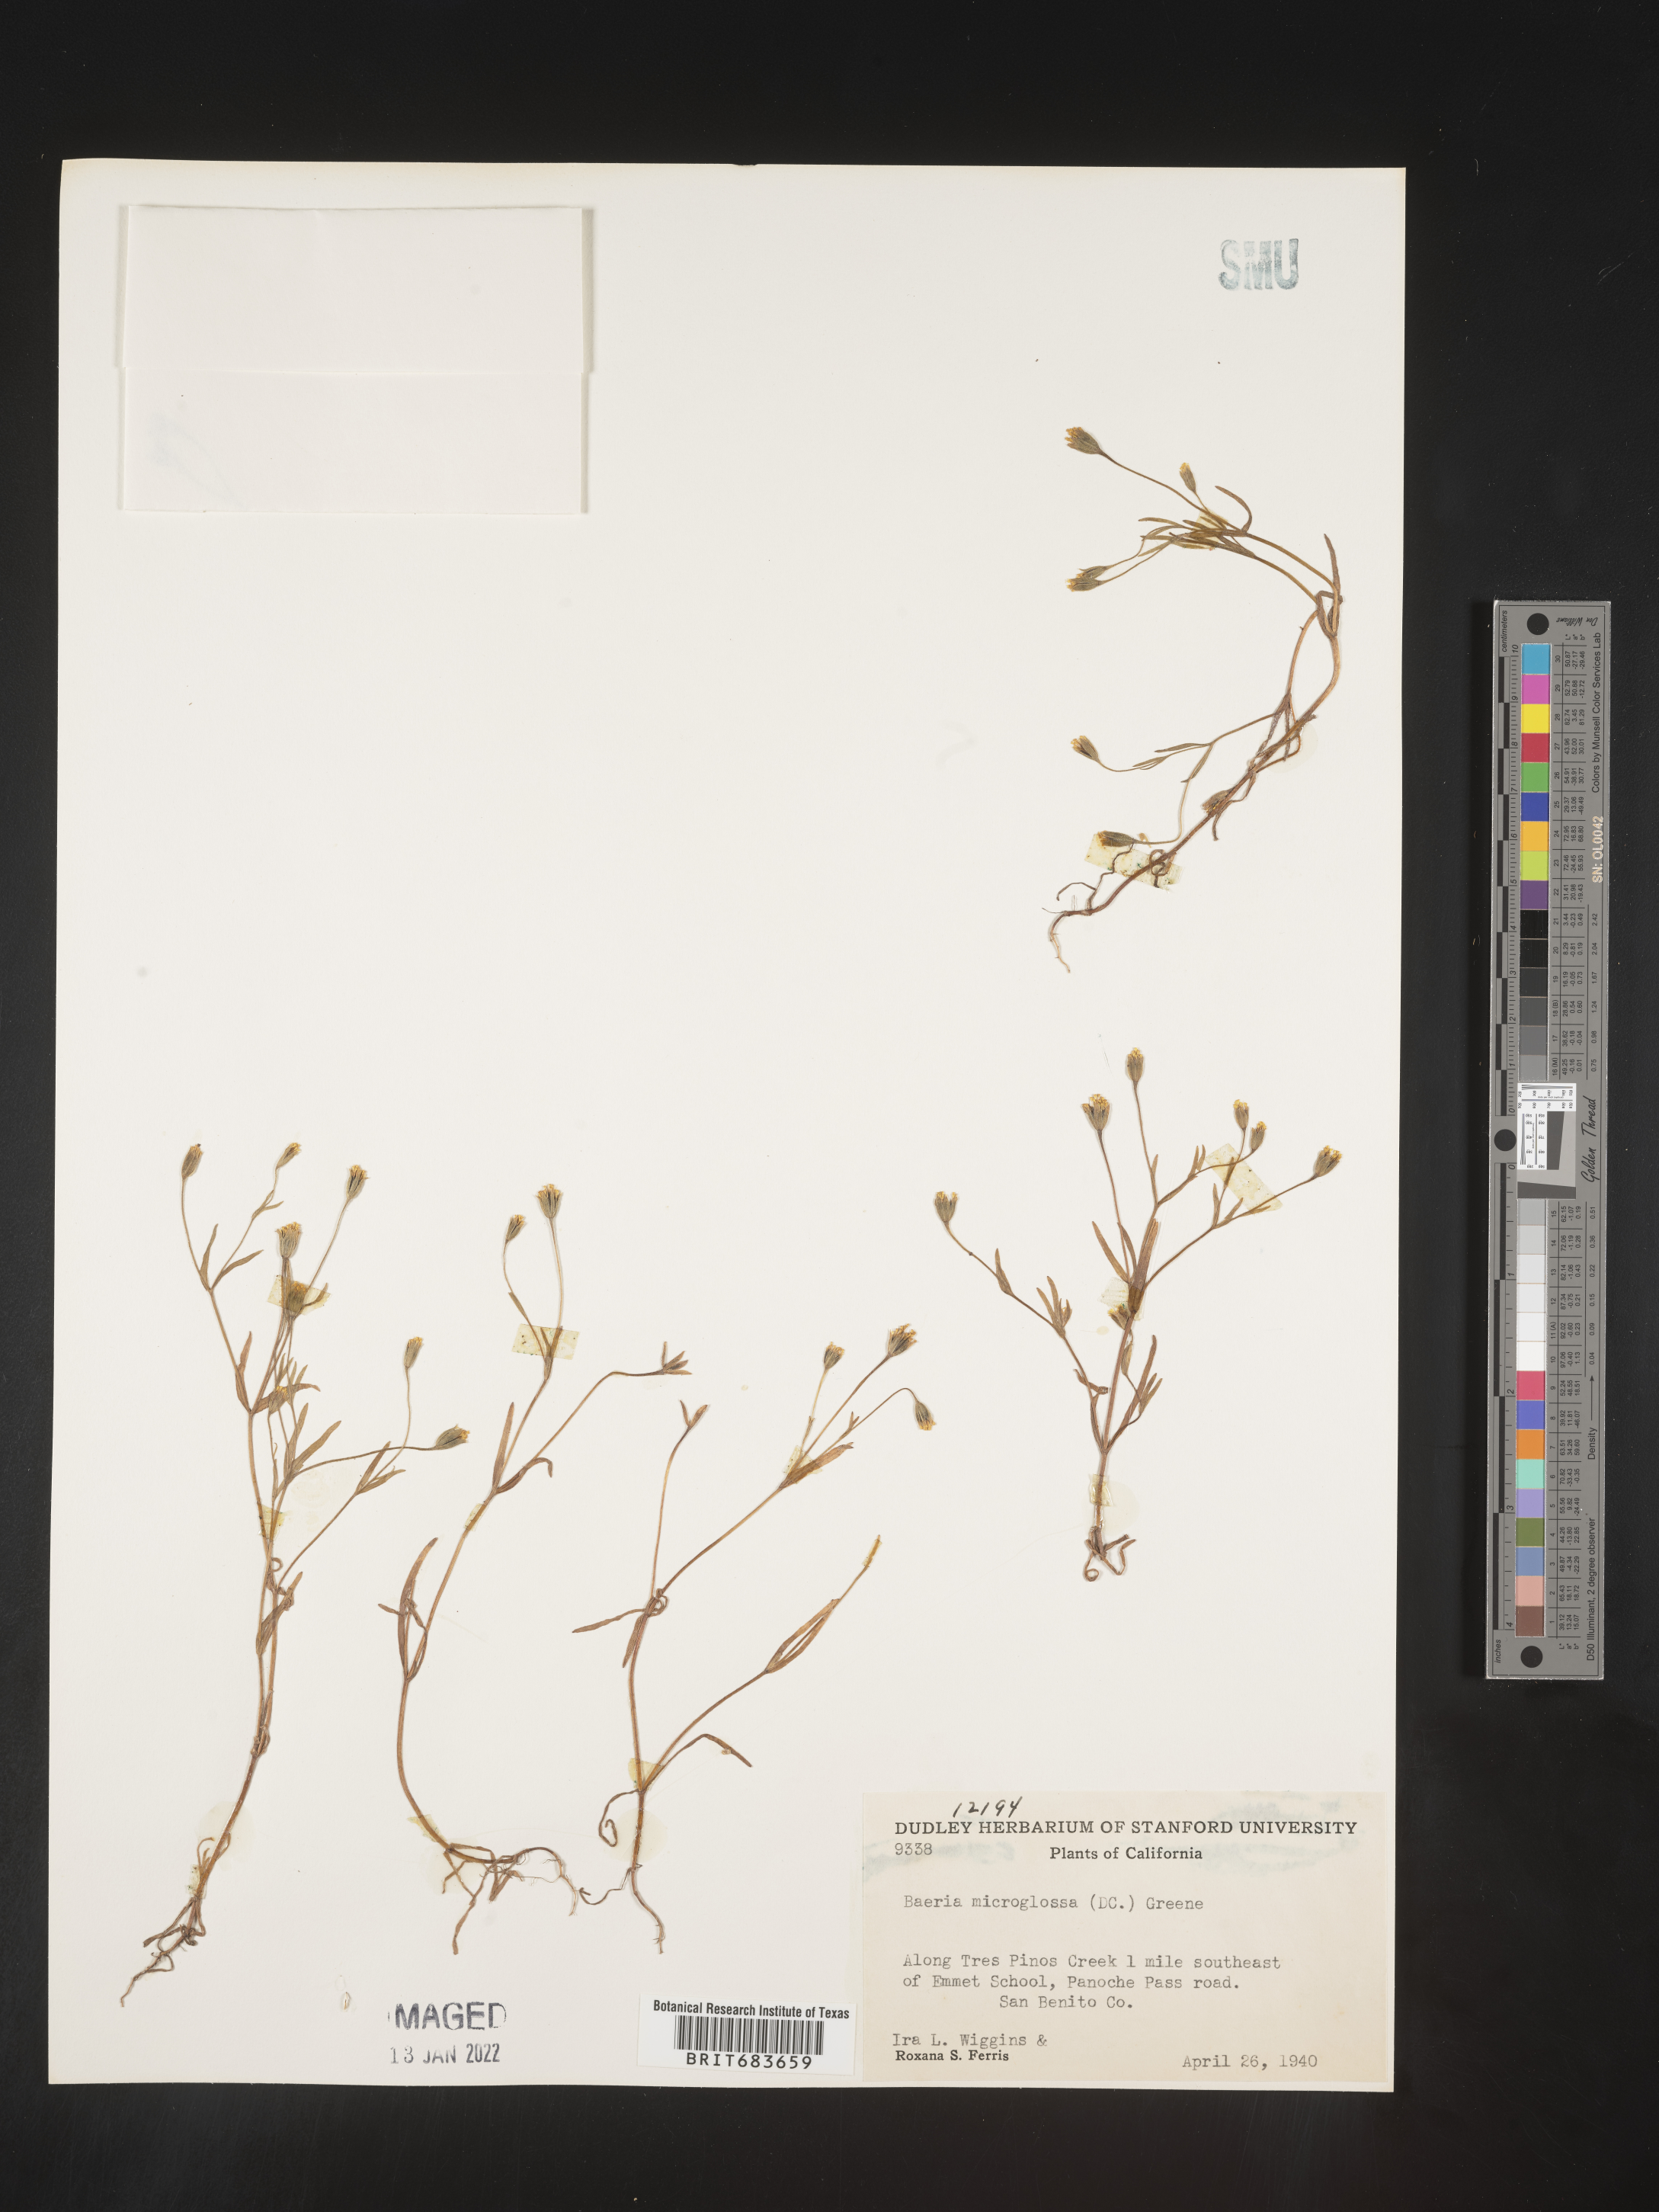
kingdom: Plantae
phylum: Tracheophyta
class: Magnoliopsida
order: Asterales
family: Asteraceae
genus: Lasthenia
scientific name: Lasthenia
